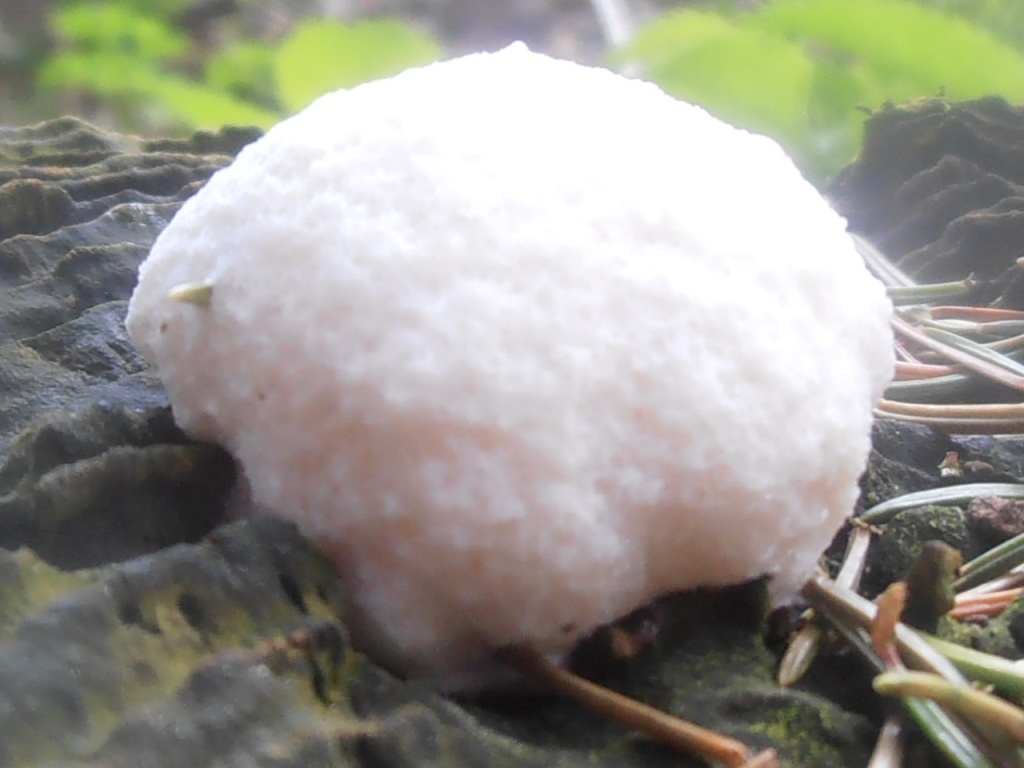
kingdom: Fungi
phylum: Basidiomycota
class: Agaricomycetes
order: Polyporales
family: Dacryobolaceae
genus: Postia
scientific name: Postia ptychogaster
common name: støvende kødporesvamp
